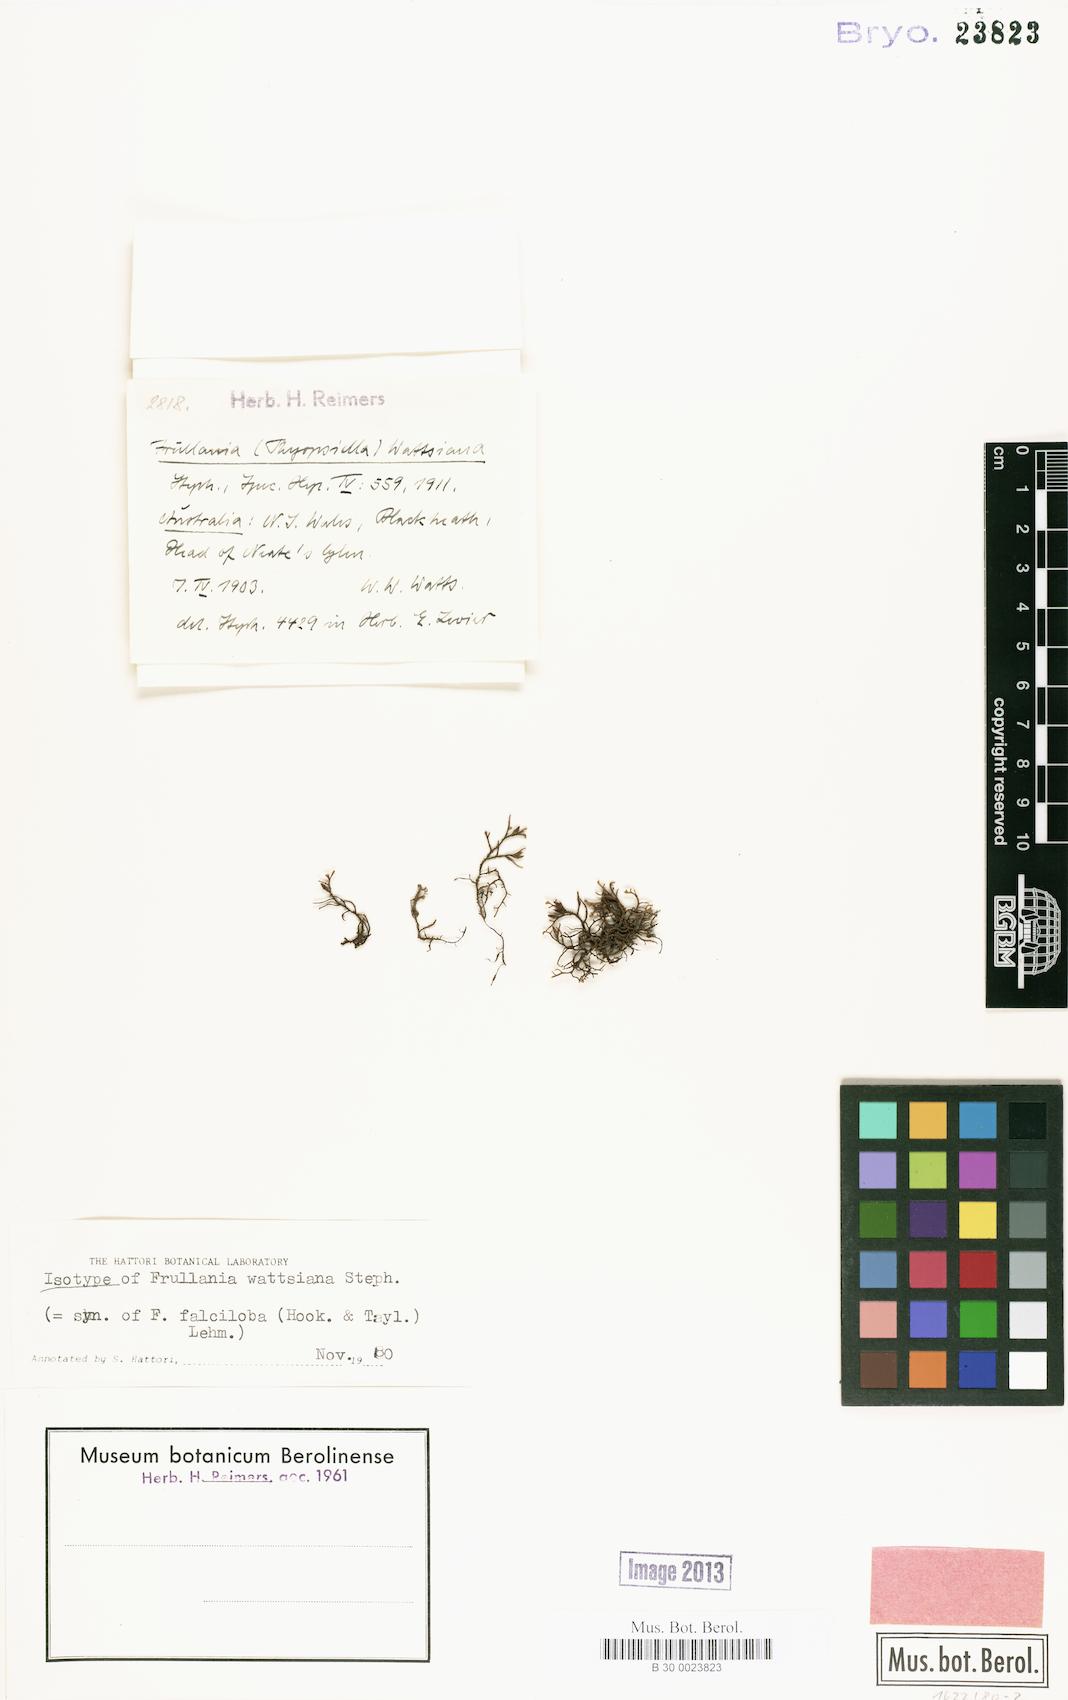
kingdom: Plantae
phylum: Marchantiophyta
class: Jungermanniopsida
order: Porellales
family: Frullaniaceae
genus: Frullania
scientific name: Frullania falciloba
